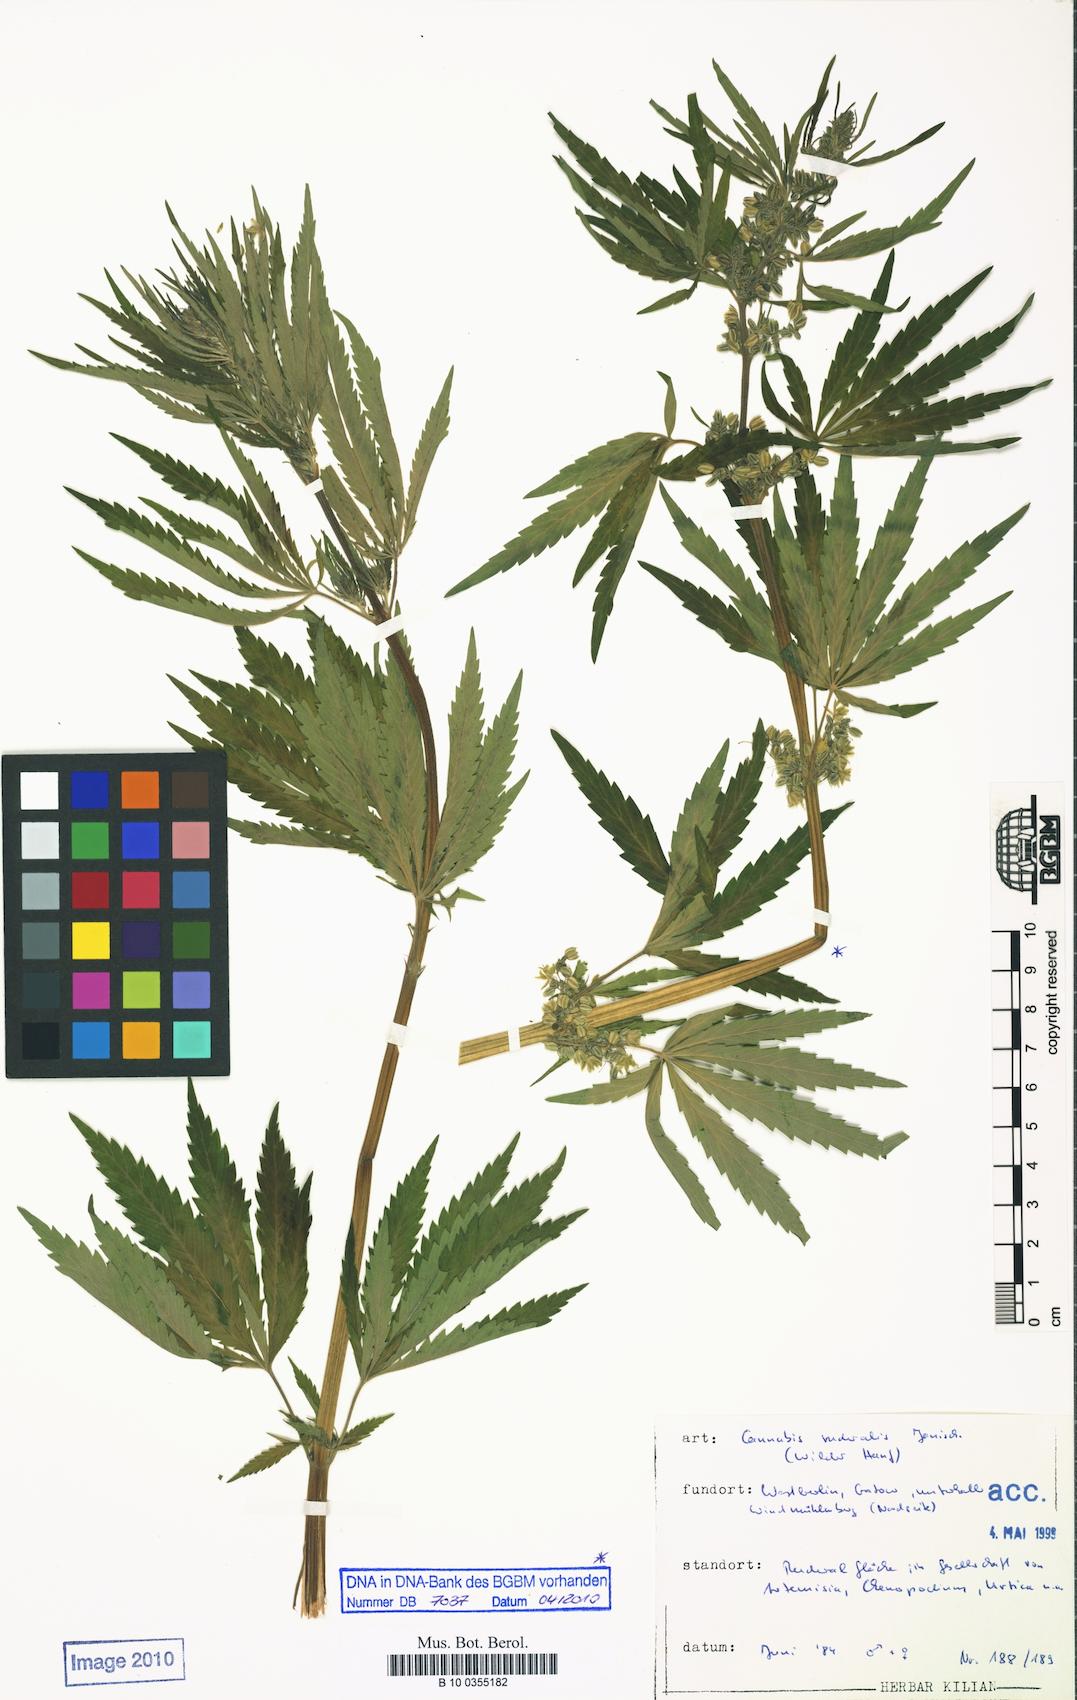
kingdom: Plantae
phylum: Tracheophyta
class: Magnoliopsida
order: Rosales
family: Cannabaceae
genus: Cannabis
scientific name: Cannabis sativa
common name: Hemp
